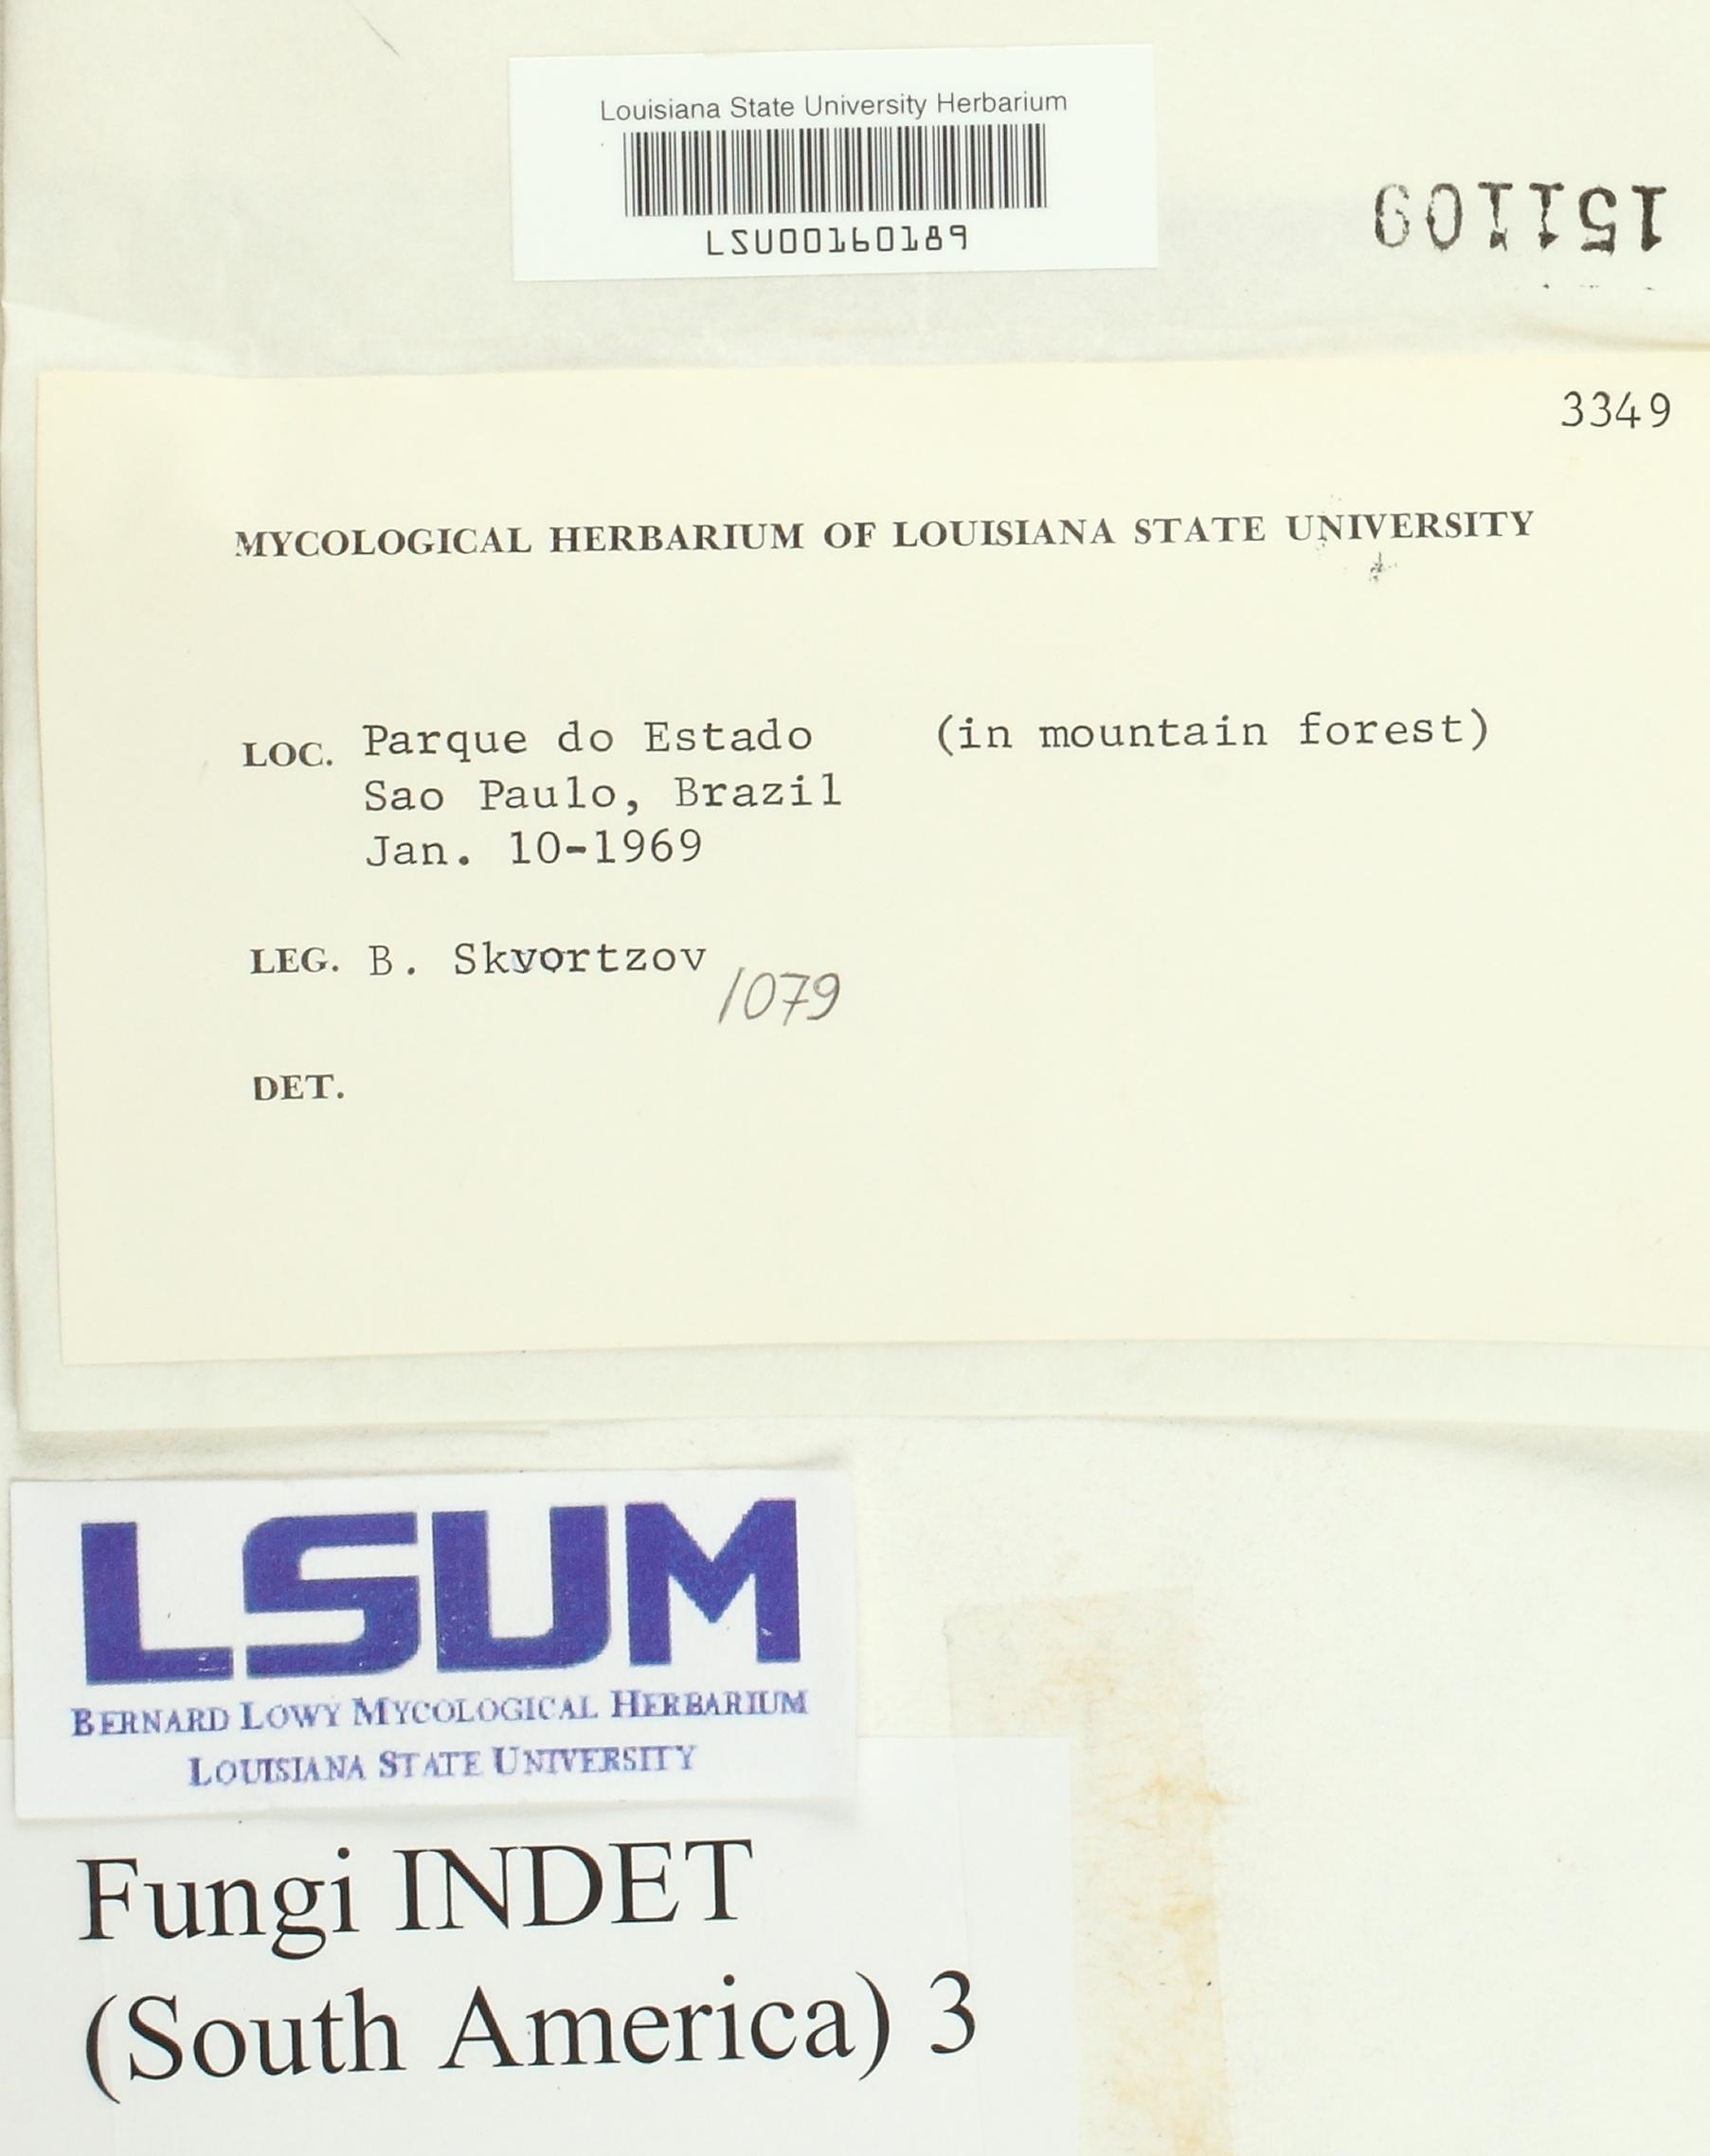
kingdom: Fungi
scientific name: Fungi
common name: Fungi
